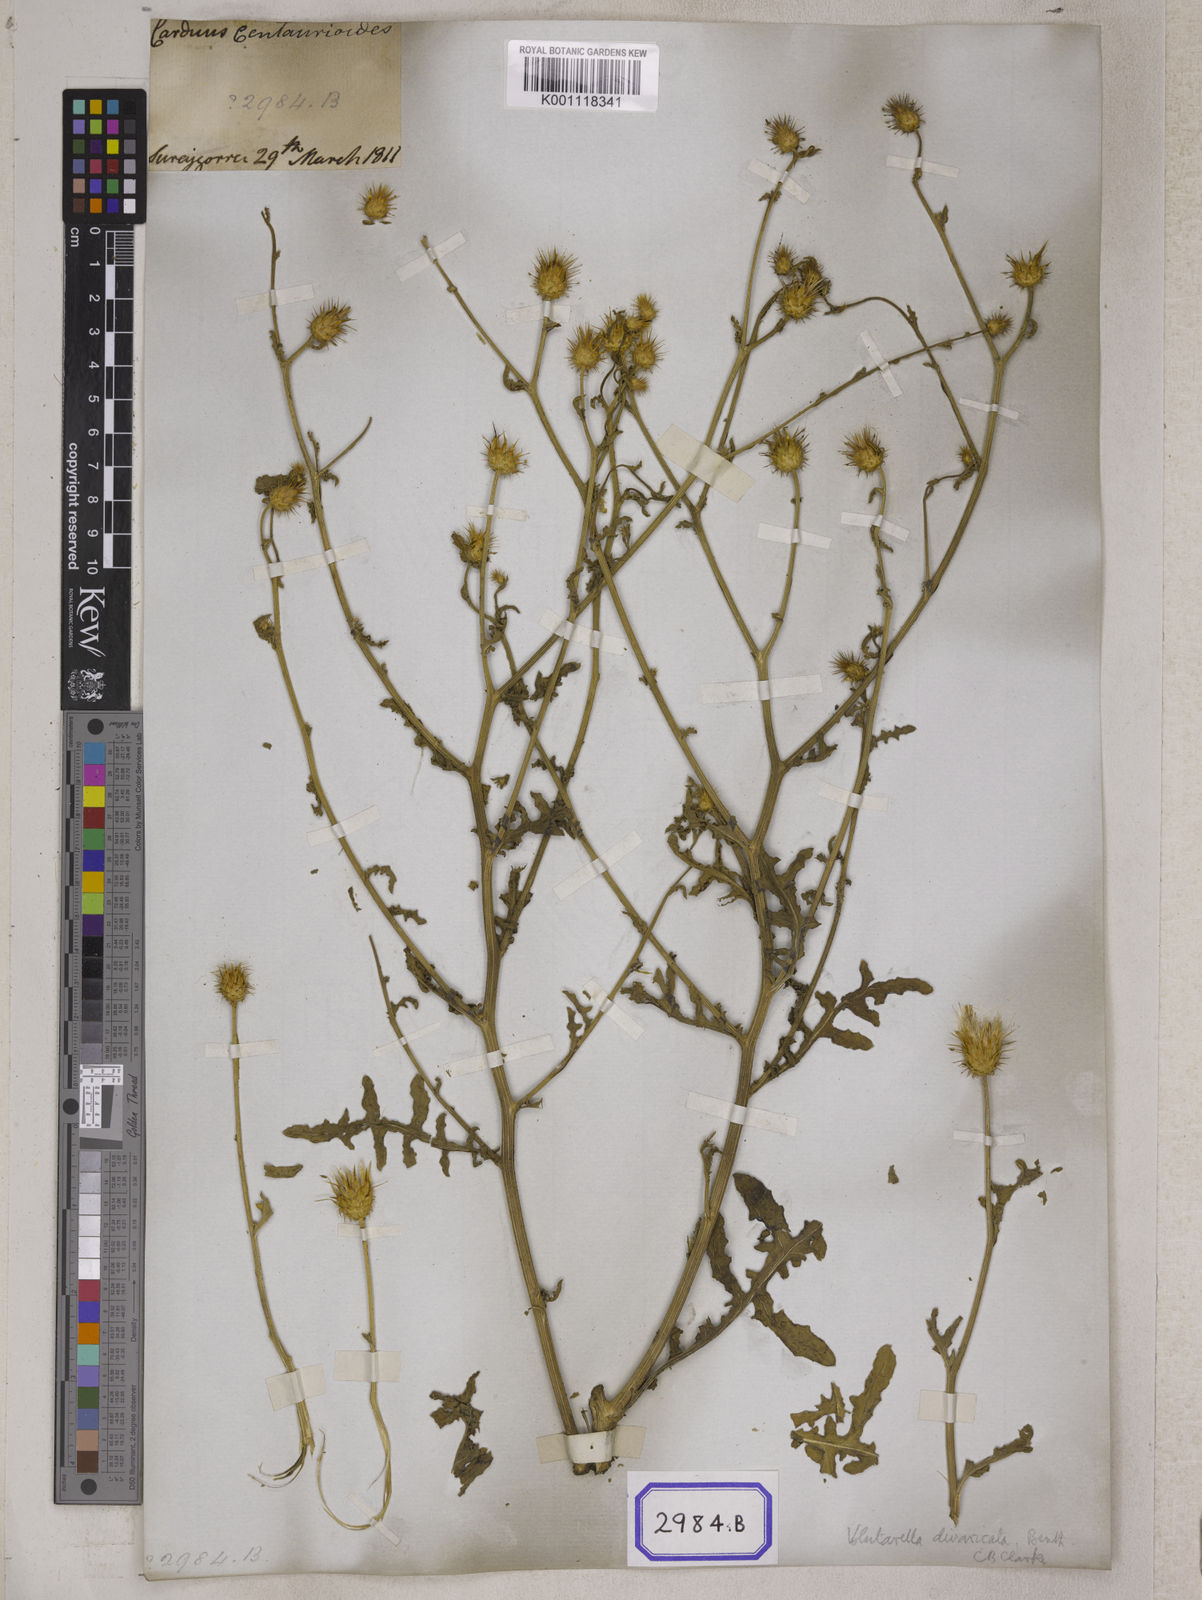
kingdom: Plantae
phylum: Tracheophyta
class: Magnoliopsida
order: Asterales
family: Asteraceae
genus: Centaurea
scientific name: Centaurea
